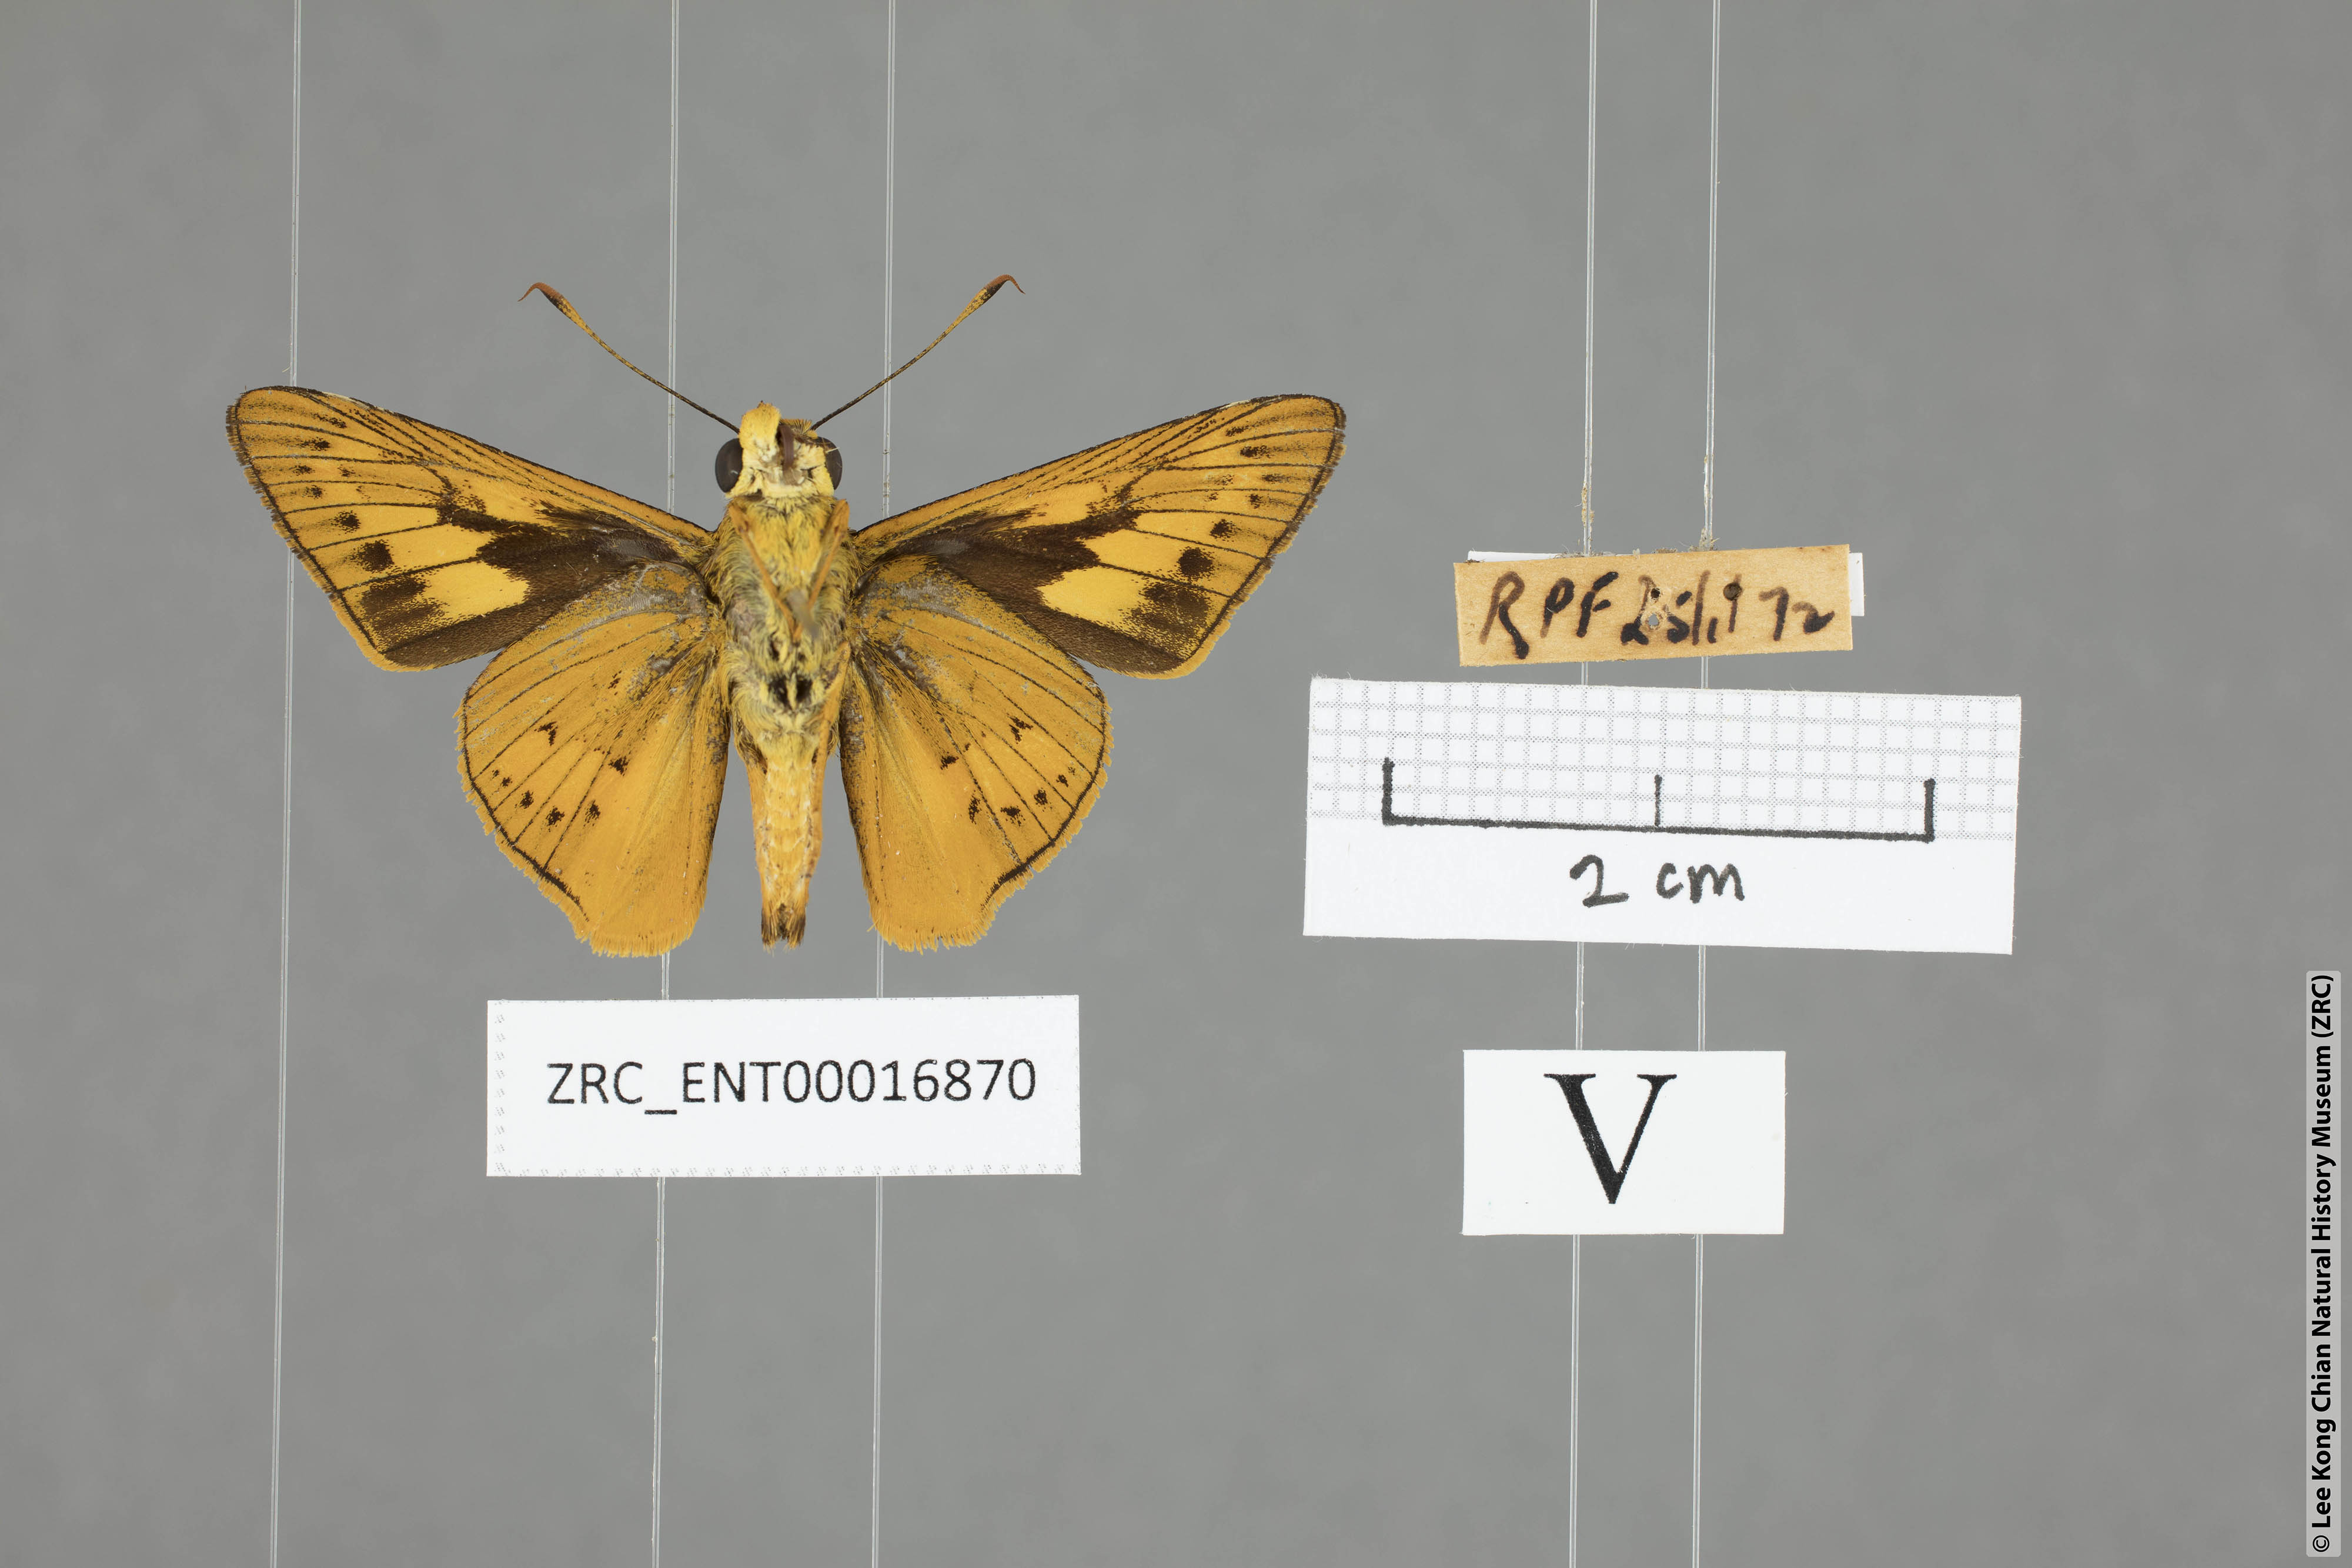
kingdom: Animalia
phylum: Arthropoda
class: Insecta
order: Lepidoptera
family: Hesperiidae
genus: Cephrenes
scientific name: Cephrenes
